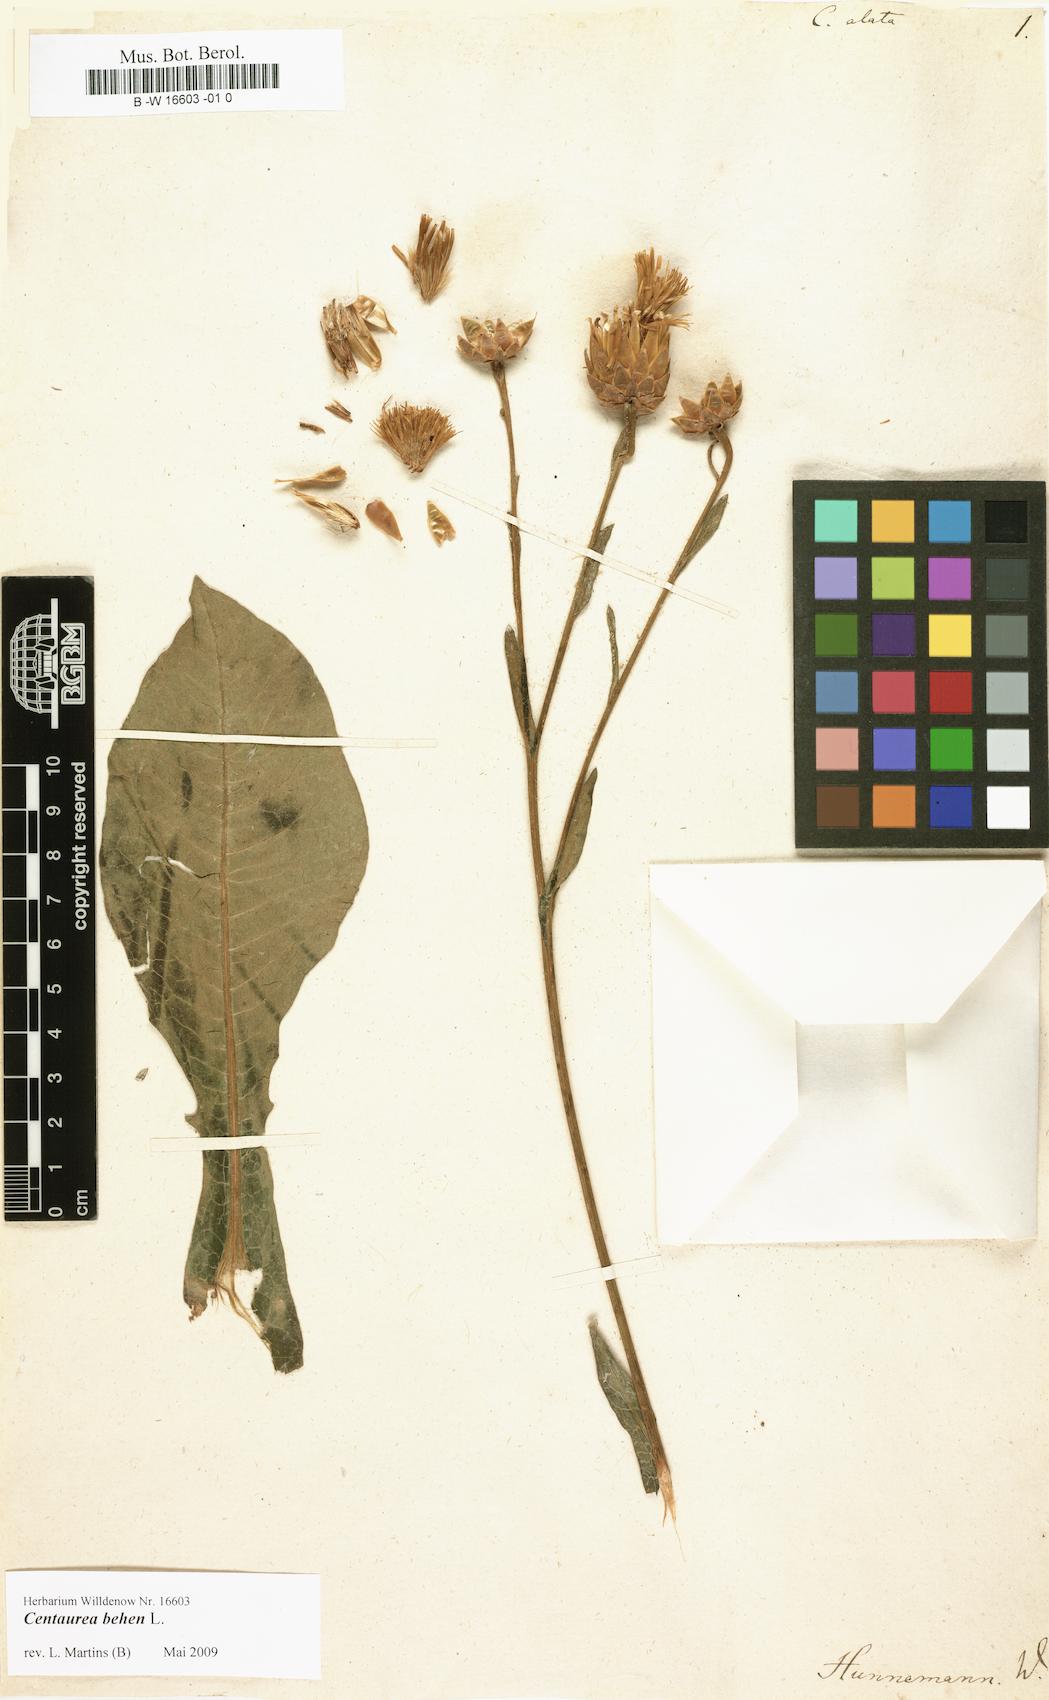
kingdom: Plantae
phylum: Tracheophyta
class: Magnoliopsida
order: Asterales
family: Asteraceae
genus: Centaurea
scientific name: Centaurea behen
